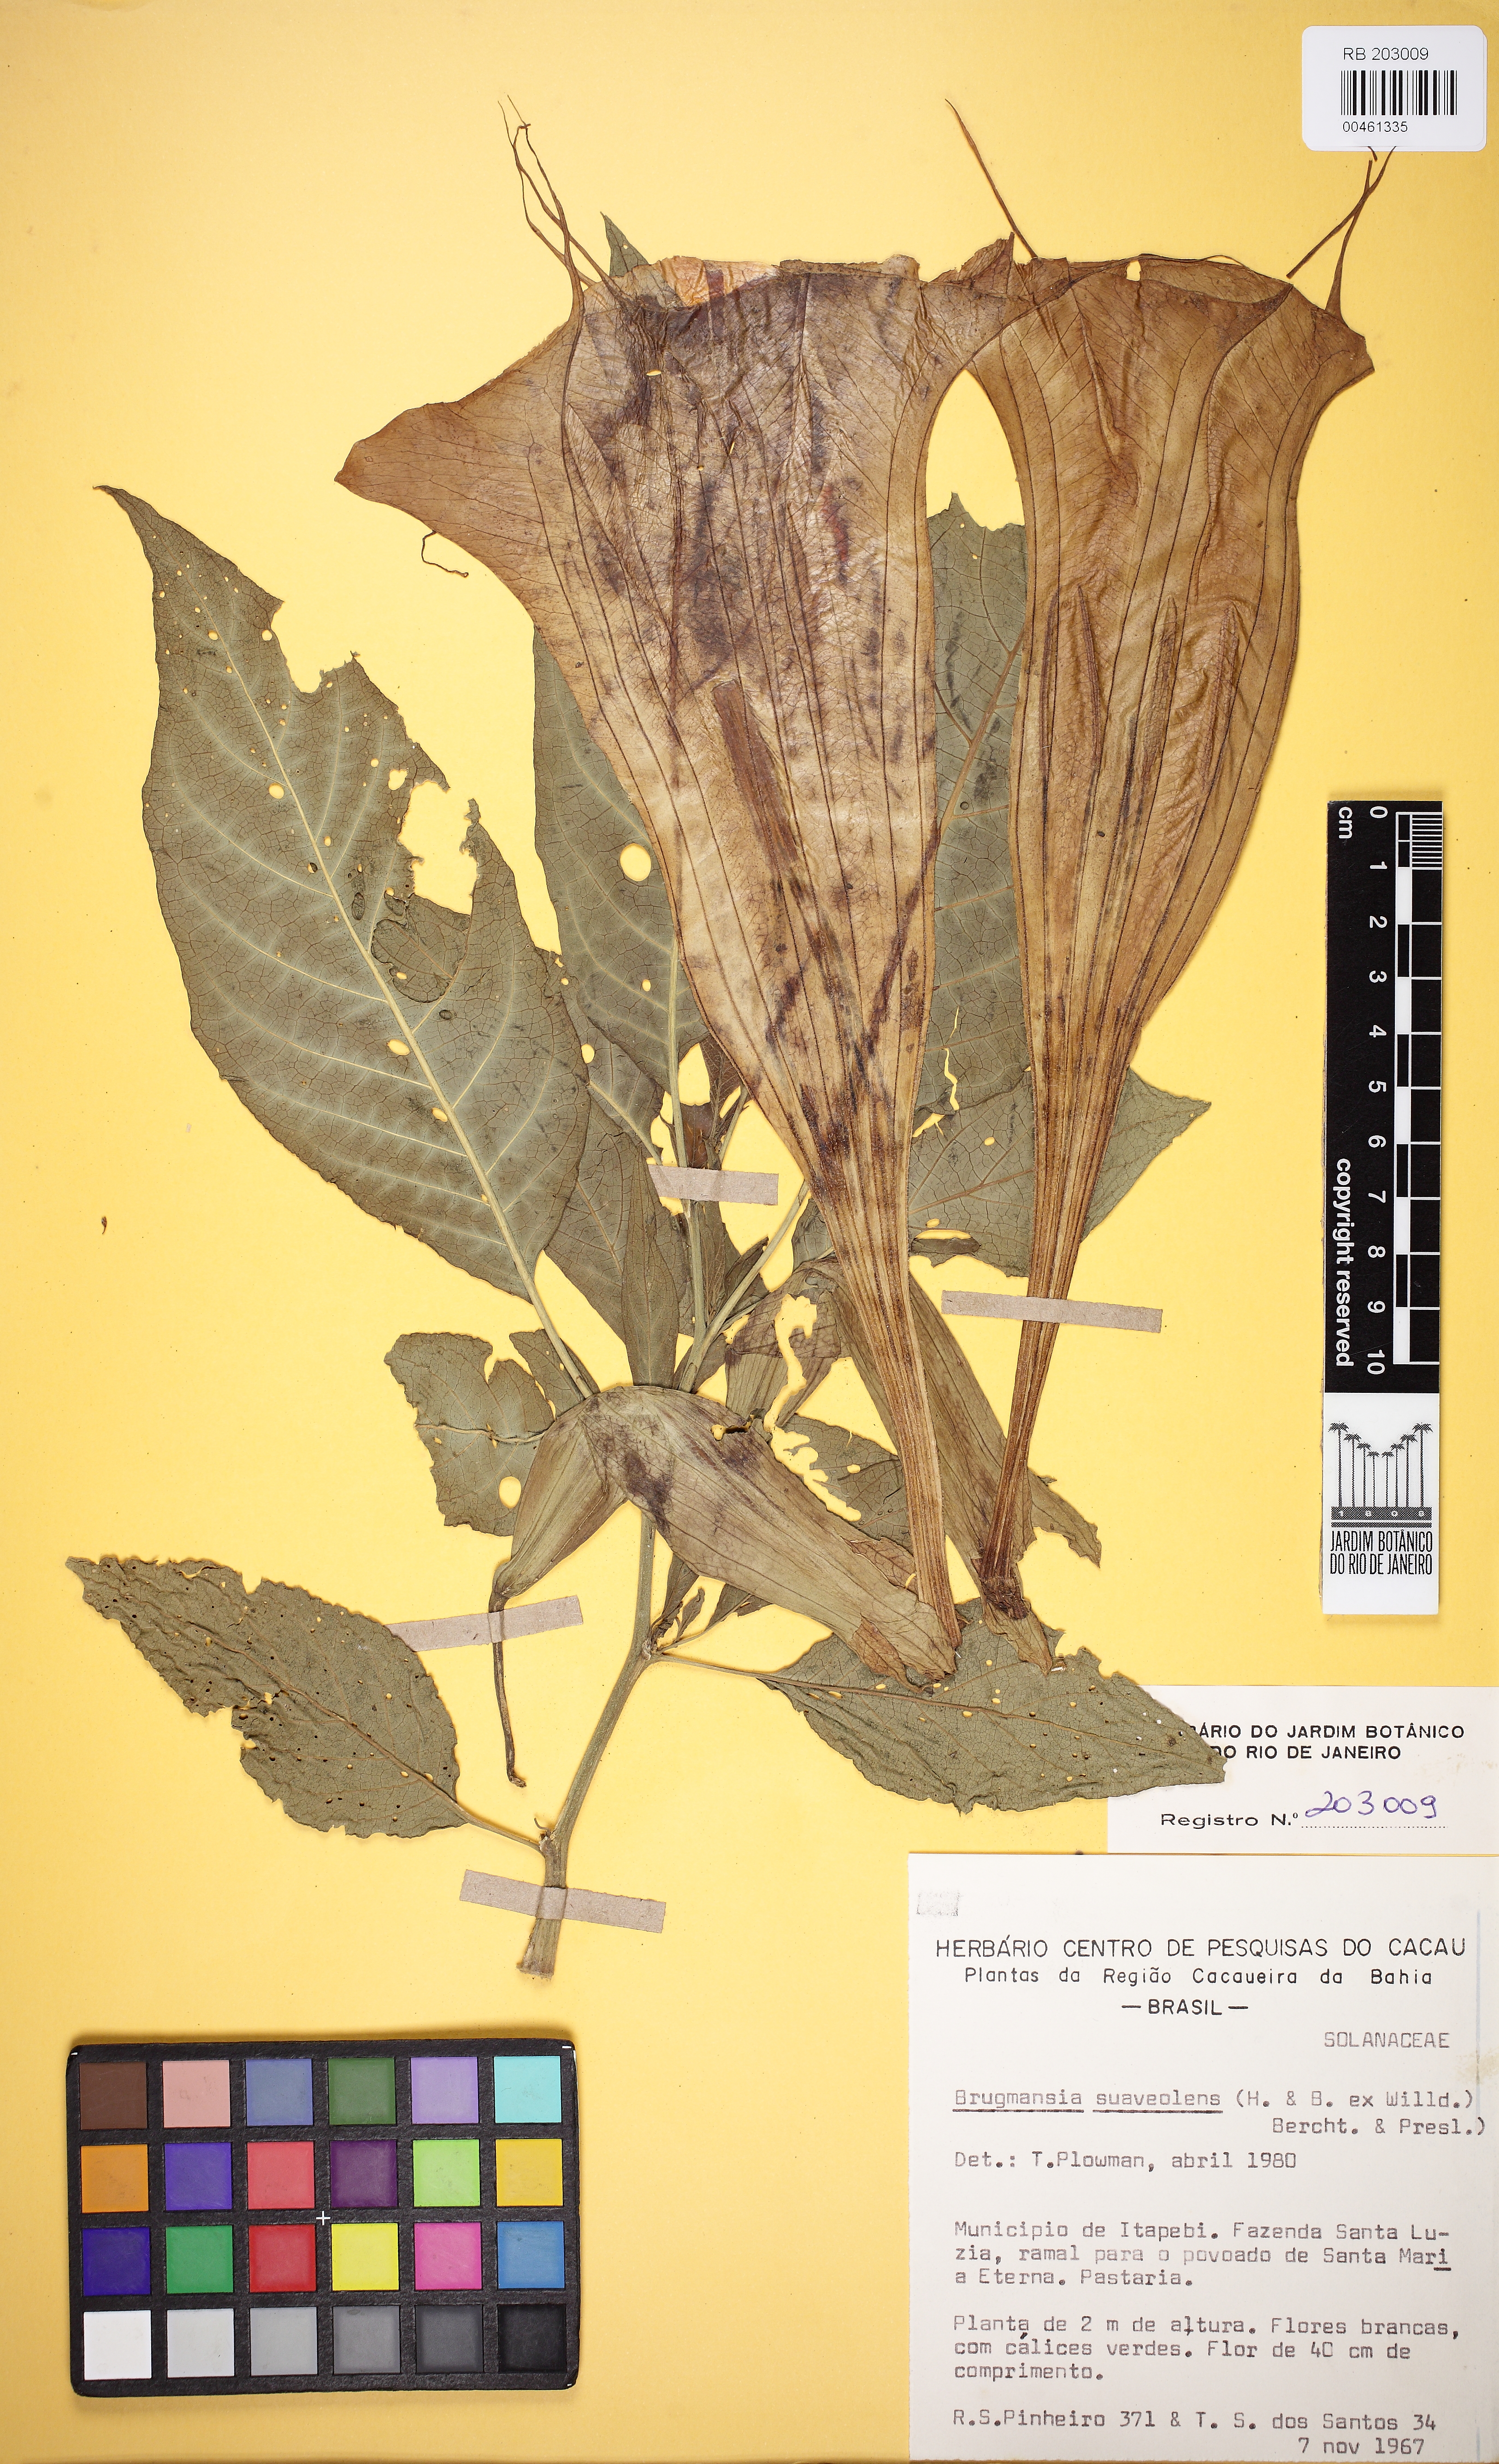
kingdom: Plantae
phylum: Tracheophyta
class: Magnoliopsida
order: Solanales
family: Solanaceae
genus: Brugmansia
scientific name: Brugmansia suaveolens
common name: Angel's tears
